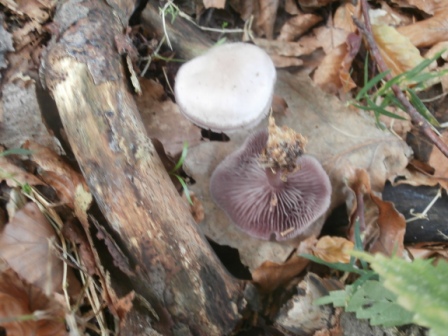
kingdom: Fungi
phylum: Basidiomycota
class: Agaricomycetes
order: Agaricales
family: Mycenaceae
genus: Prunulus
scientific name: Prunulus diosmus
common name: tobaks-huesvamp
